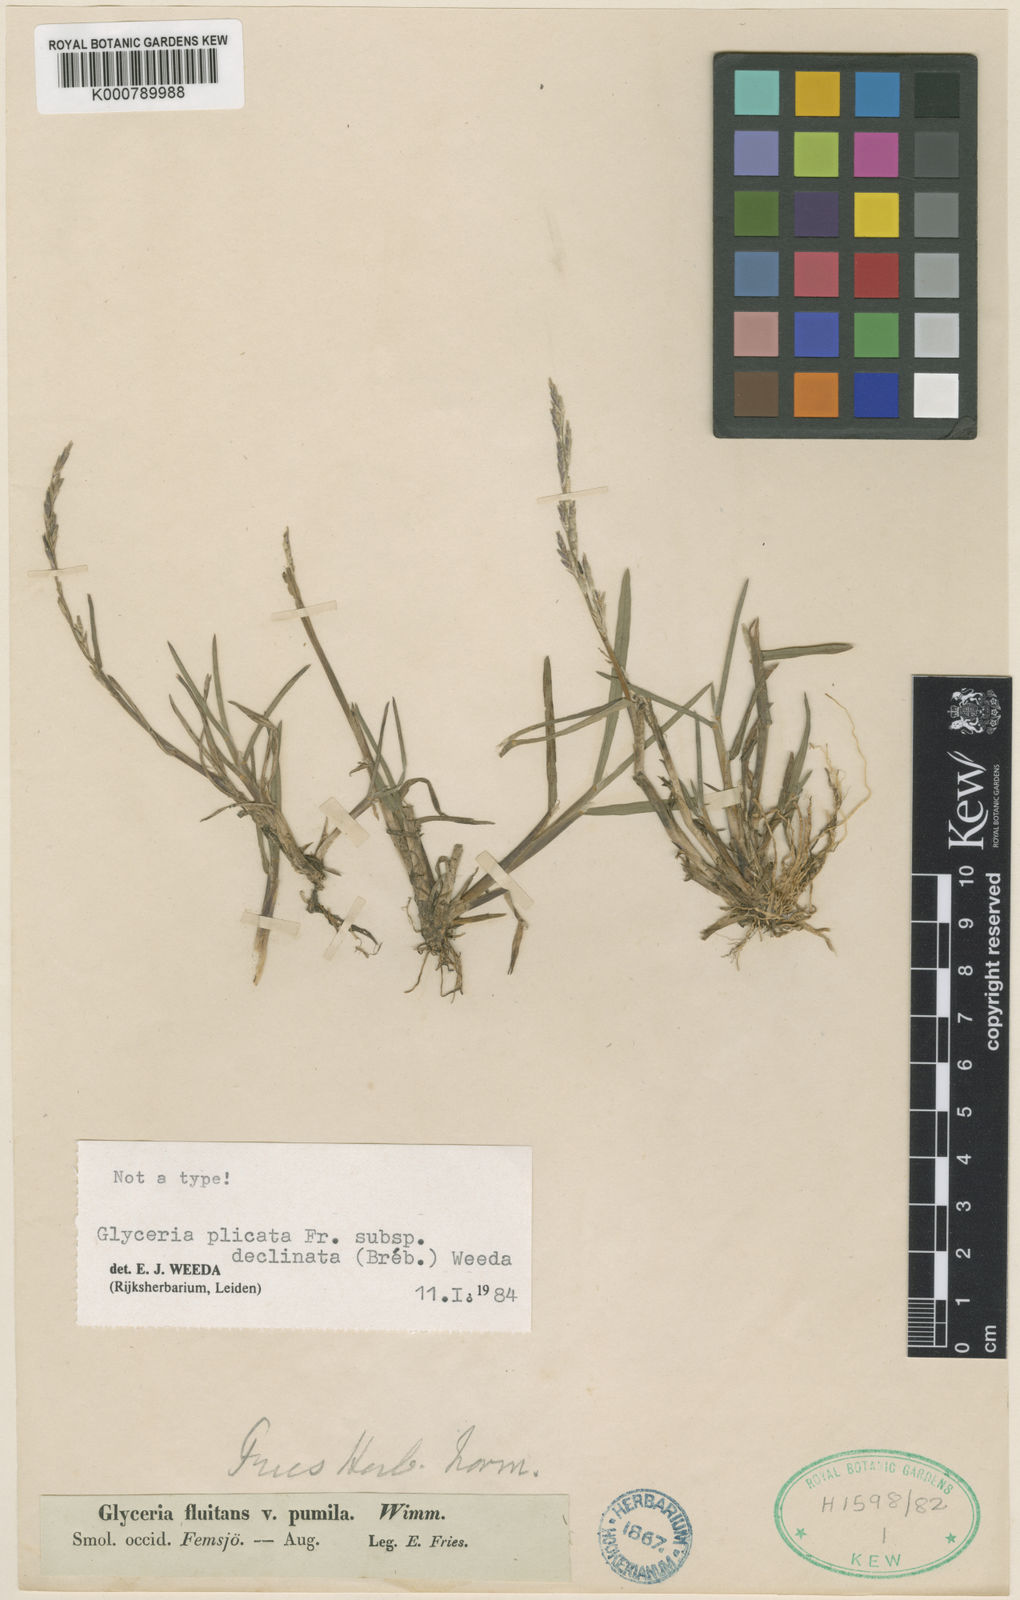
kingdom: Plantae
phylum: Tracheophyta
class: Liliopsida
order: Poales
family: Poaceae
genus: Glyceria
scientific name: Glyceria declinata
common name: Small sweet-grass
